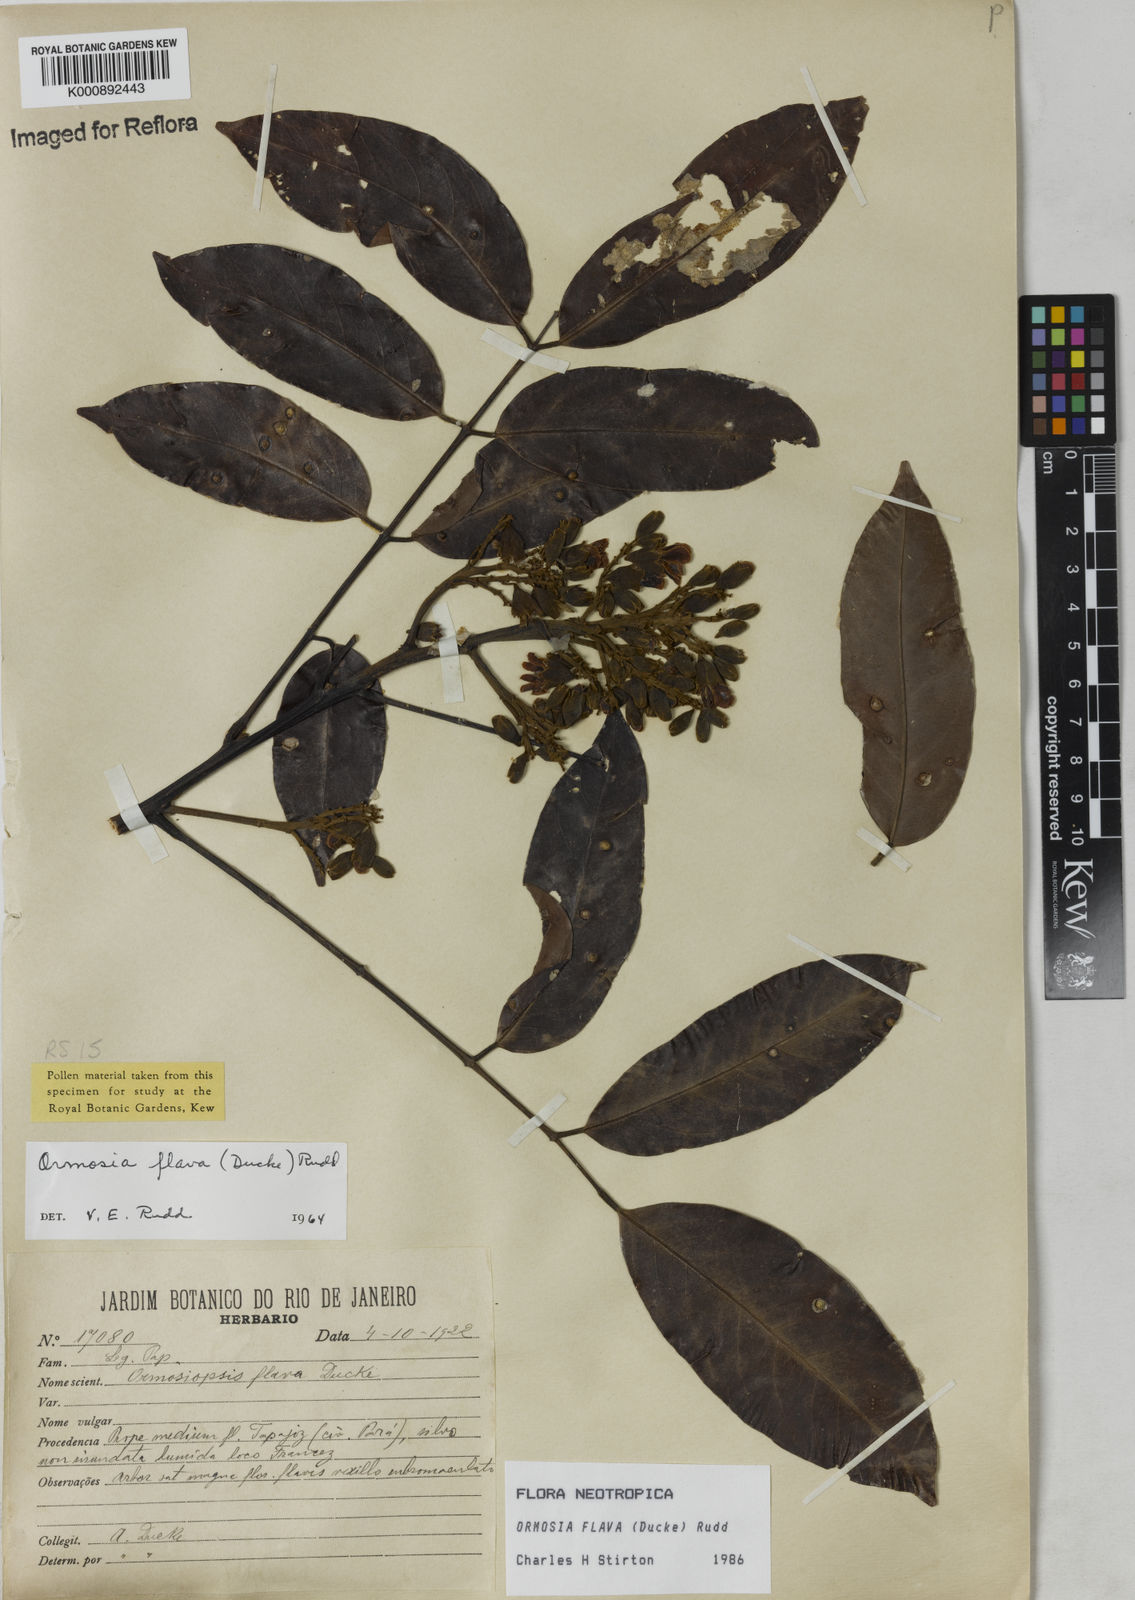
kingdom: Plantae
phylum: Tracheophyta
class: Magnoliopsida
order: Fabales
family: Fabaceae
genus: Ormosia
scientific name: Ormosia flava
